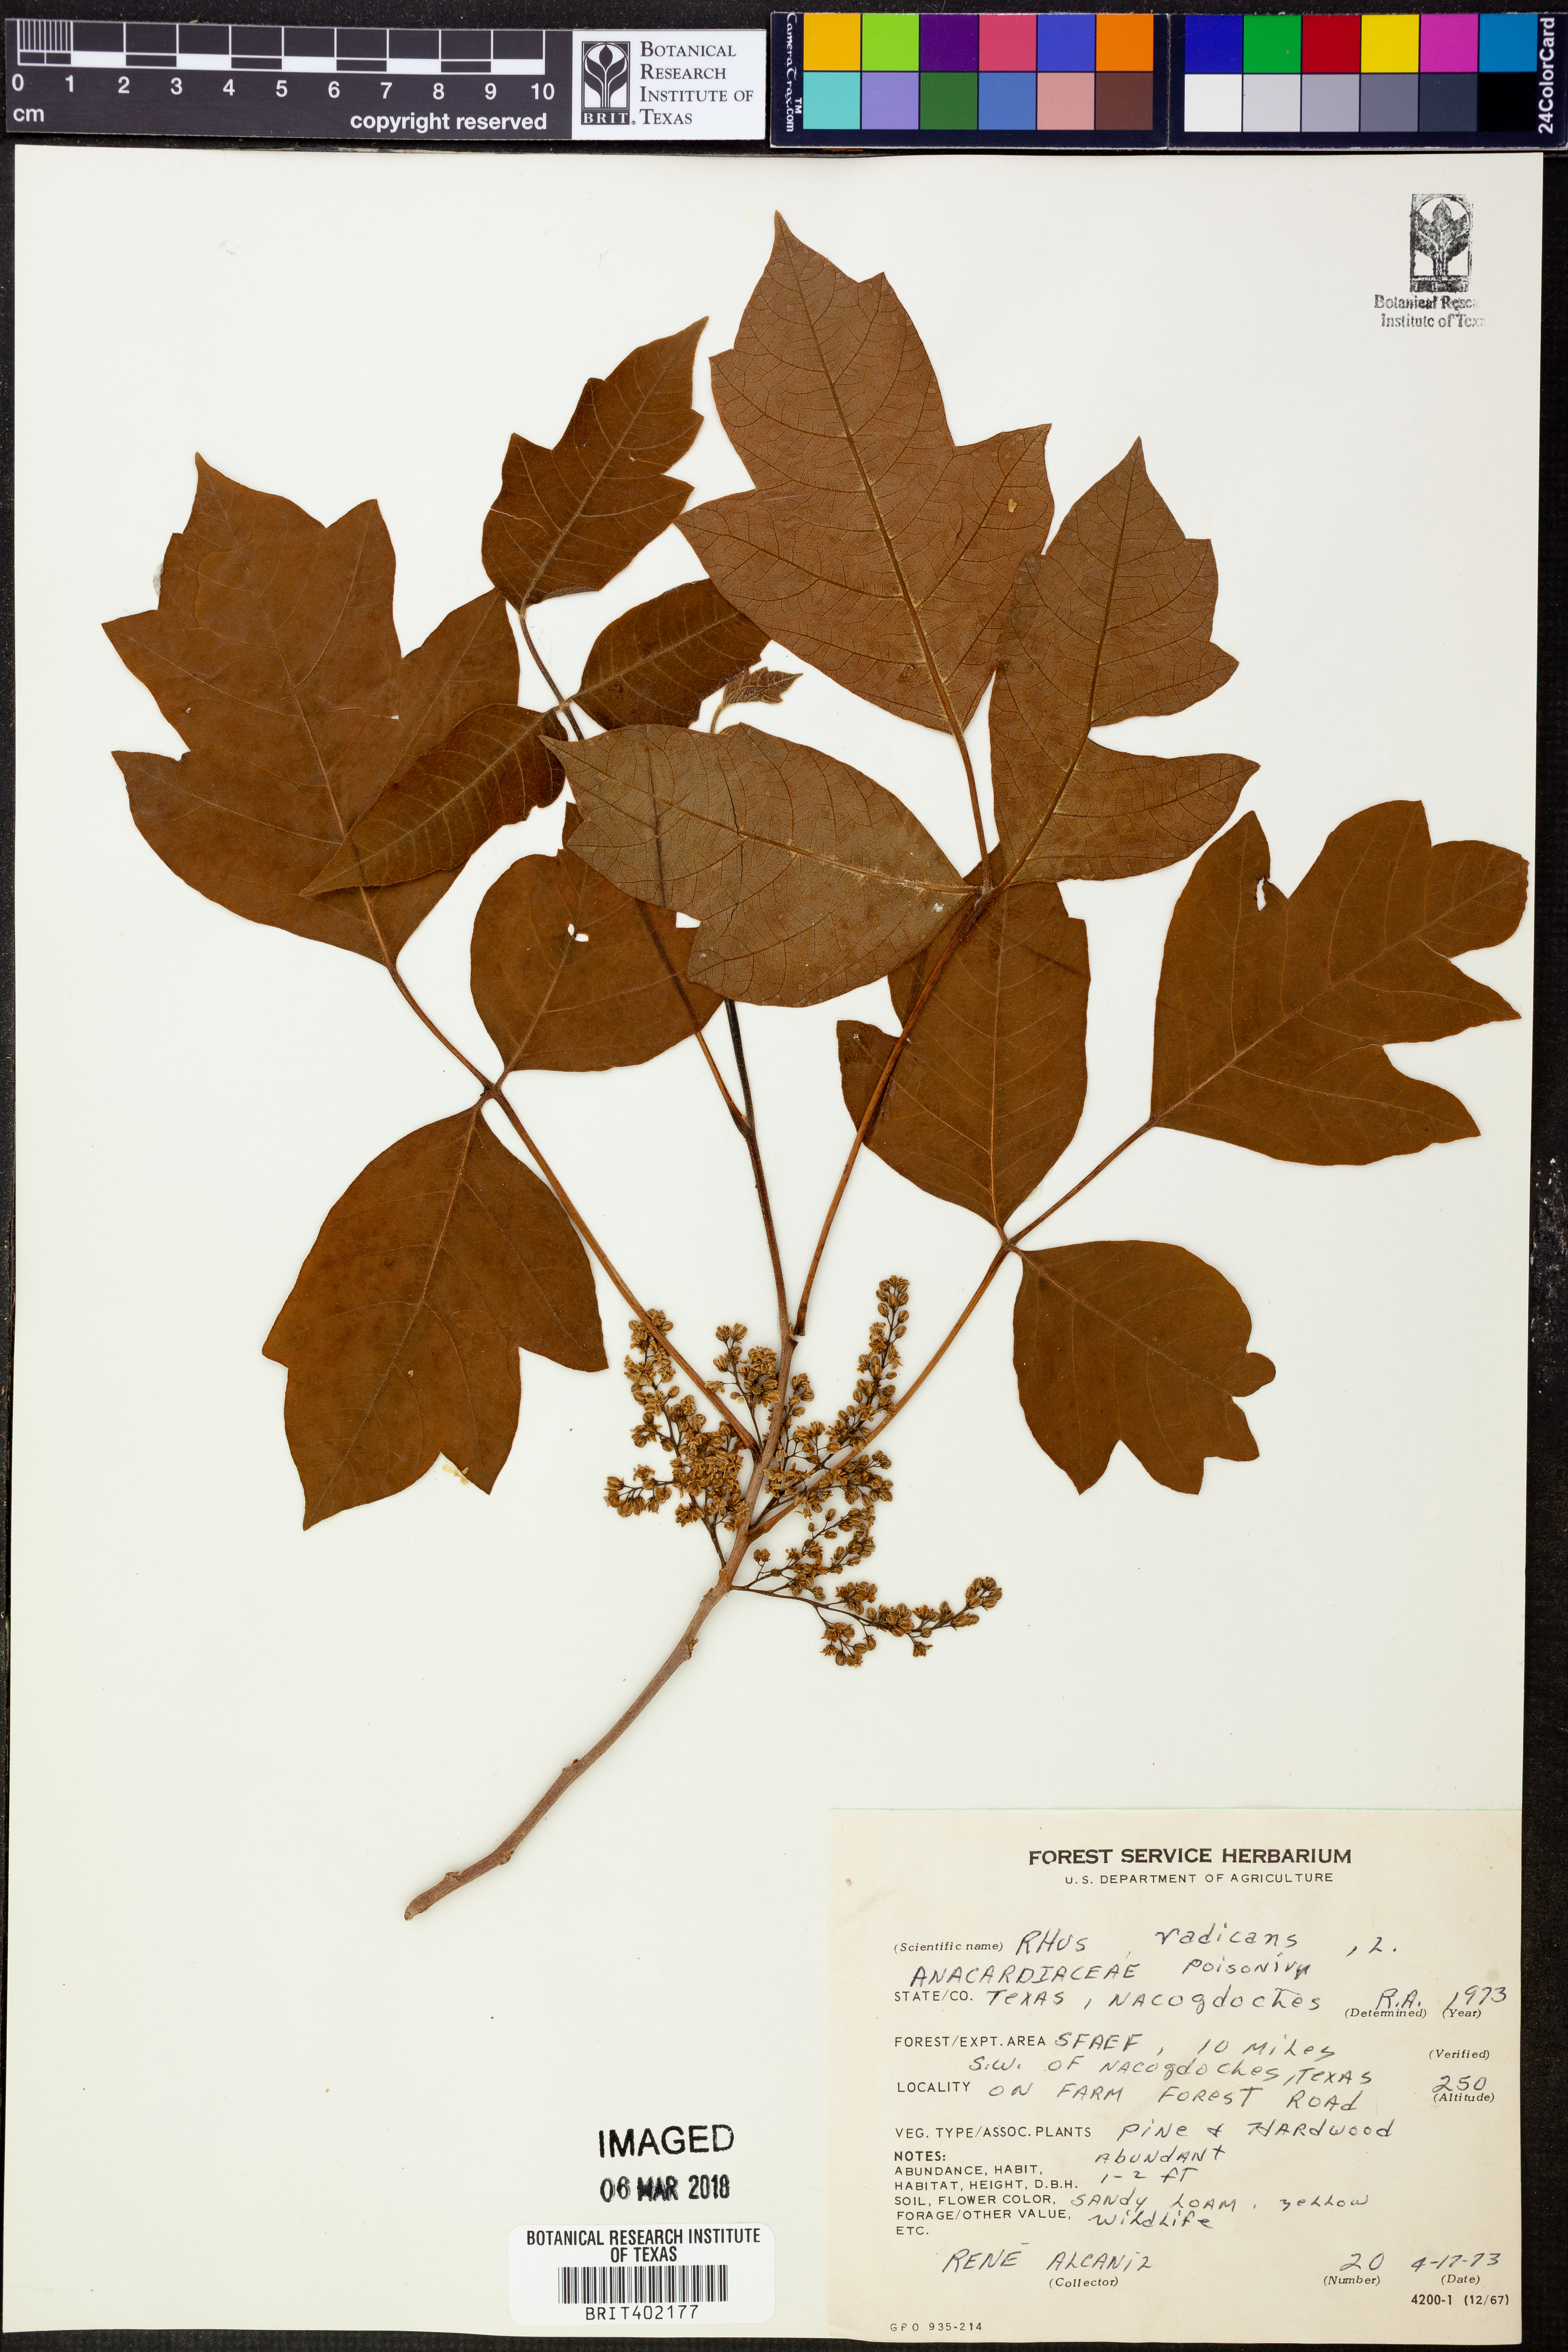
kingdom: Plantae
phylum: Tracheophyta
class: Magnoliopsida
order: Sapindales
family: Anacardiaceae
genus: Toxicodendron
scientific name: Toxicodendron radicans
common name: Poison ivy
